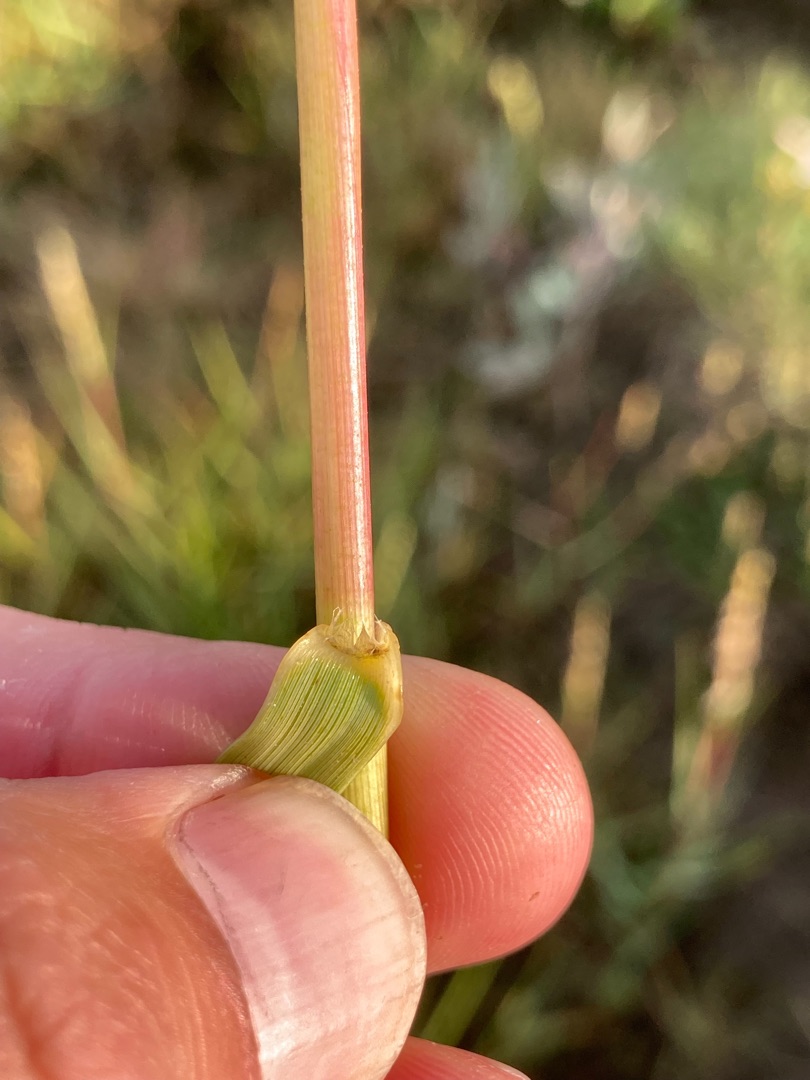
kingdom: Plantae
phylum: Tracheophyta
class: Liliopsida
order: Poales
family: Poaceae
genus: Sporobolus
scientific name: Sporobolus anglicus
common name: Engelsk vadegræs
